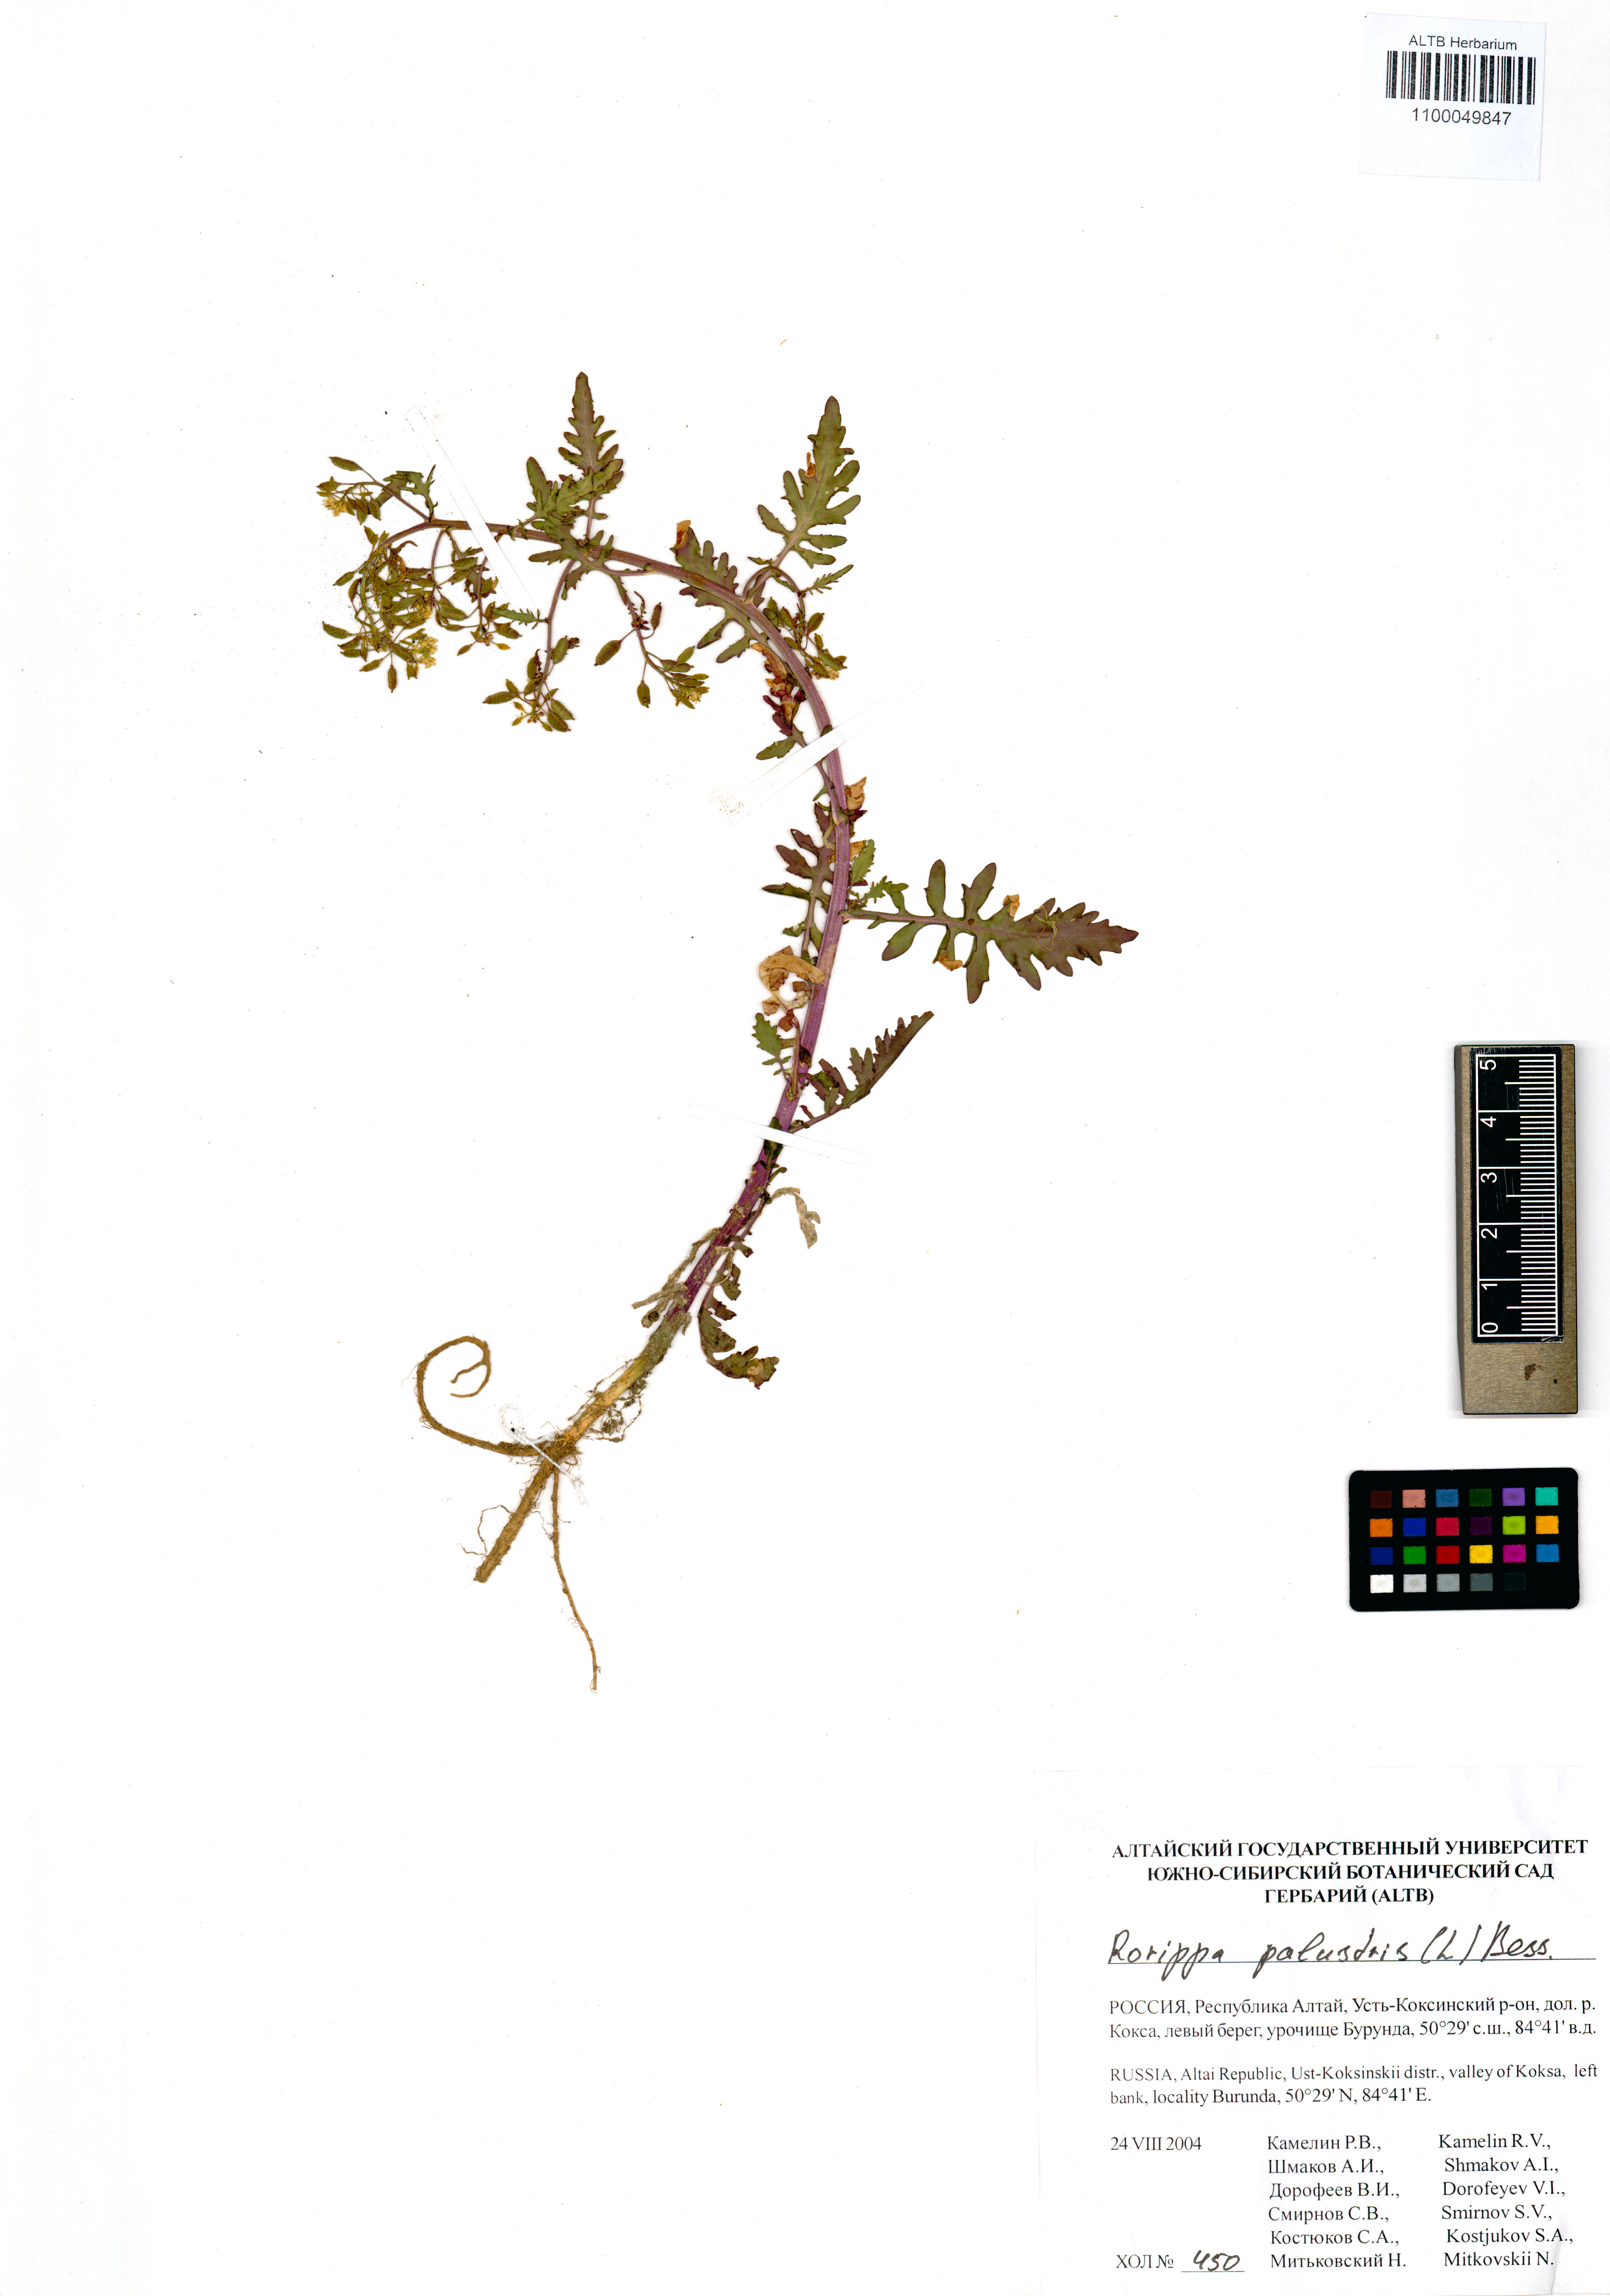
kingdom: Plantae
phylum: Tracheophyta
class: Magnoliopsida
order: Brassicales
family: Brassicaceae
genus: Rorippa
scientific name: Rorippa palustris
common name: Marsh yellow-cress
